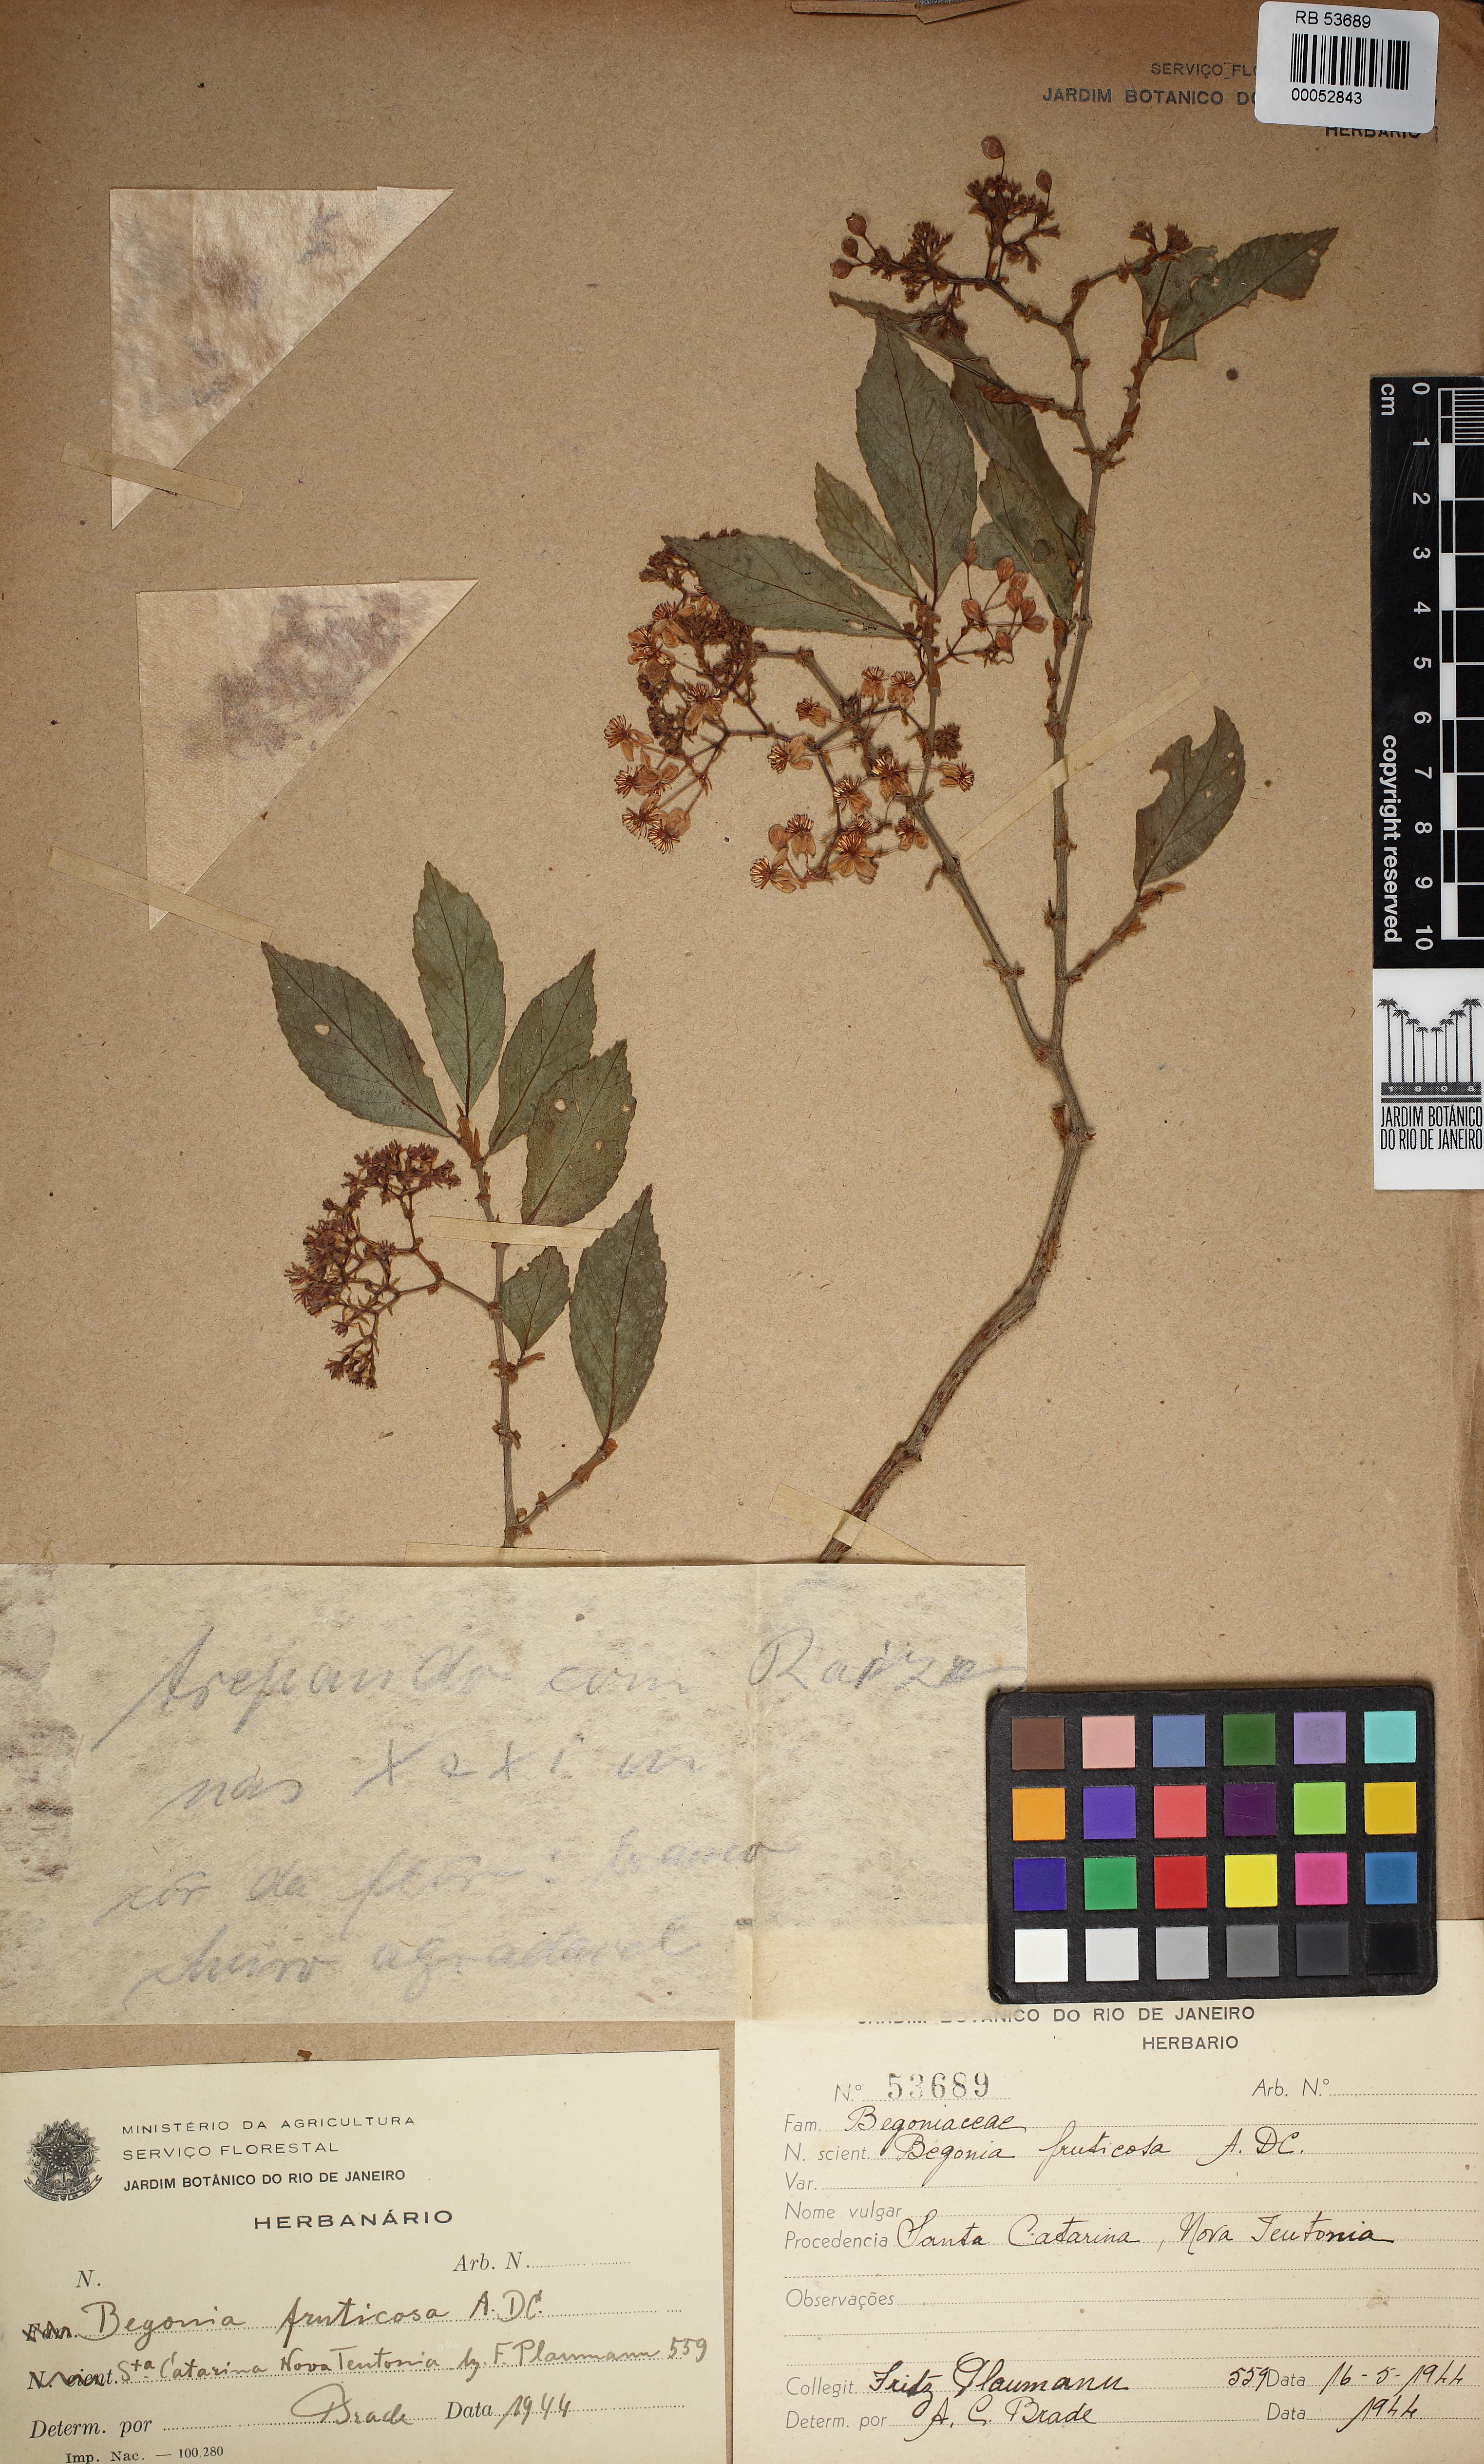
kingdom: Plantae
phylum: Tracheophyta
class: Magnoliopsida
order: Cucurbitales
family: Begoniaceae
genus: Begonia
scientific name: Begonia fruticosa
